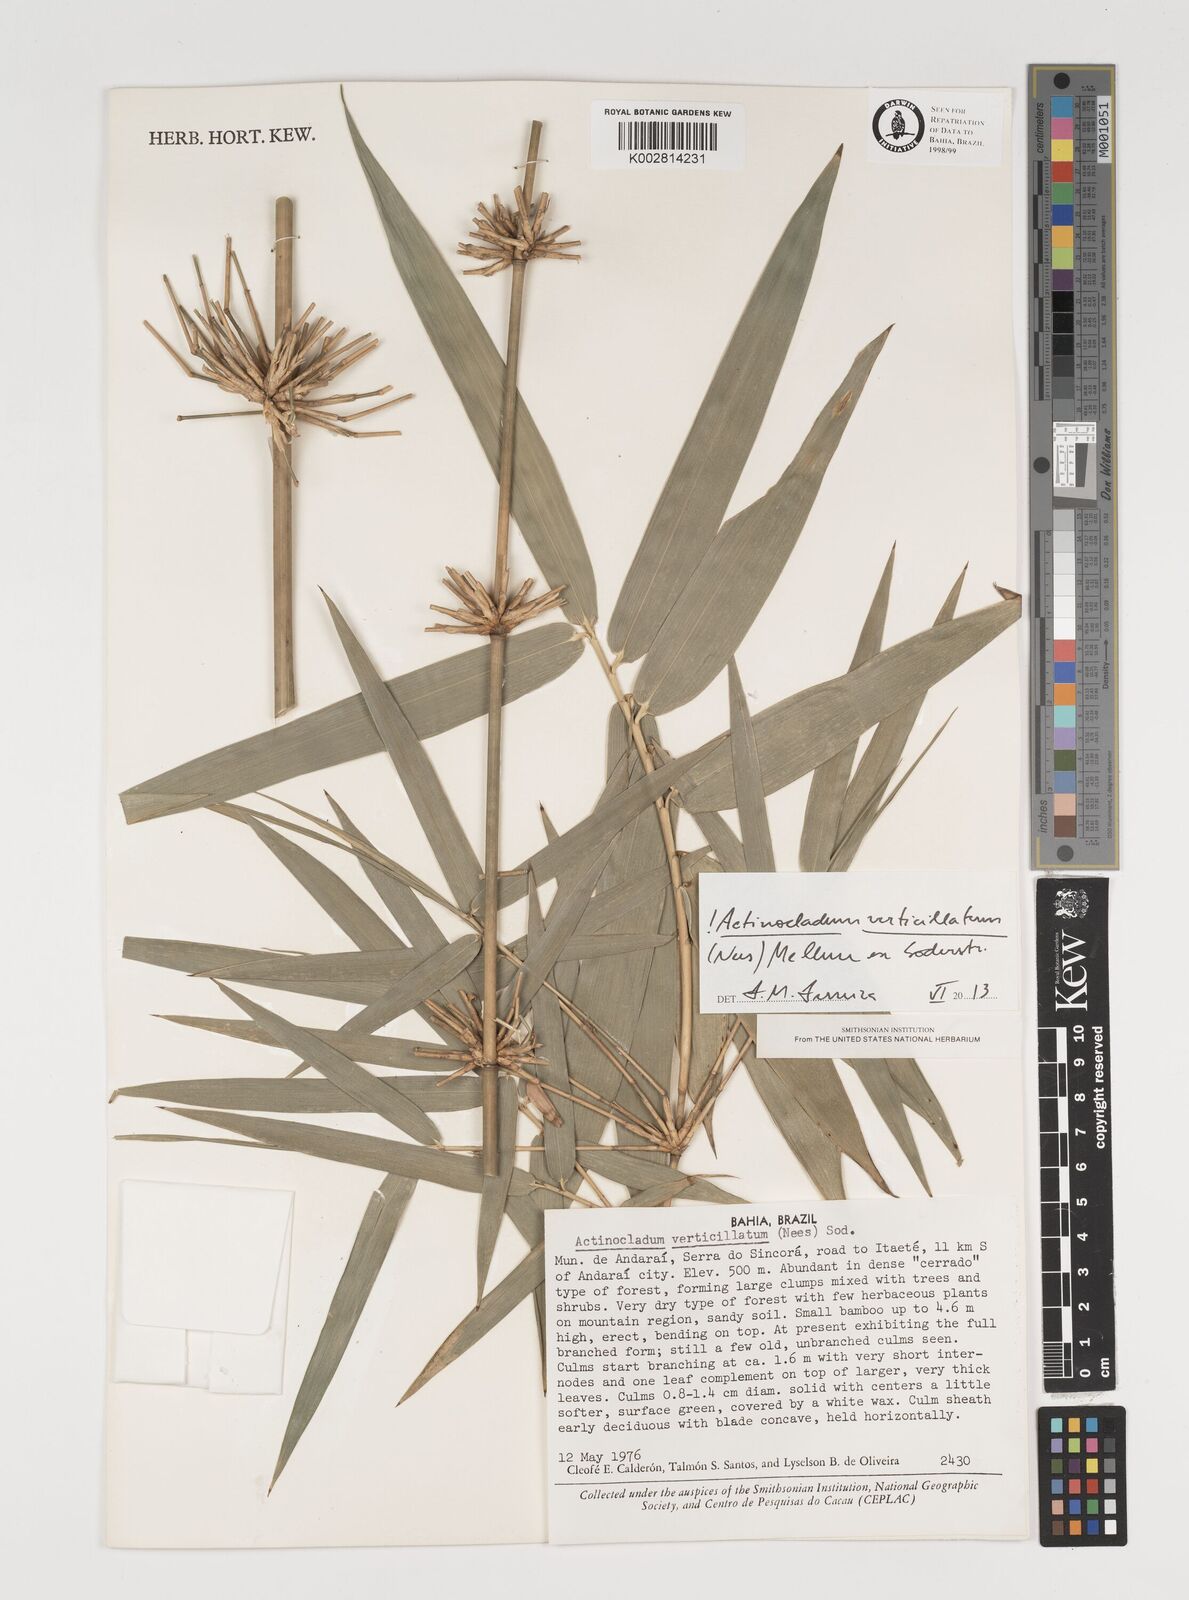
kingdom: Plantae
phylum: Tracheophyta
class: Liliopsida
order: Poales
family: Poaceae
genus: Actinocladum
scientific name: Actinocladum verticillatum
